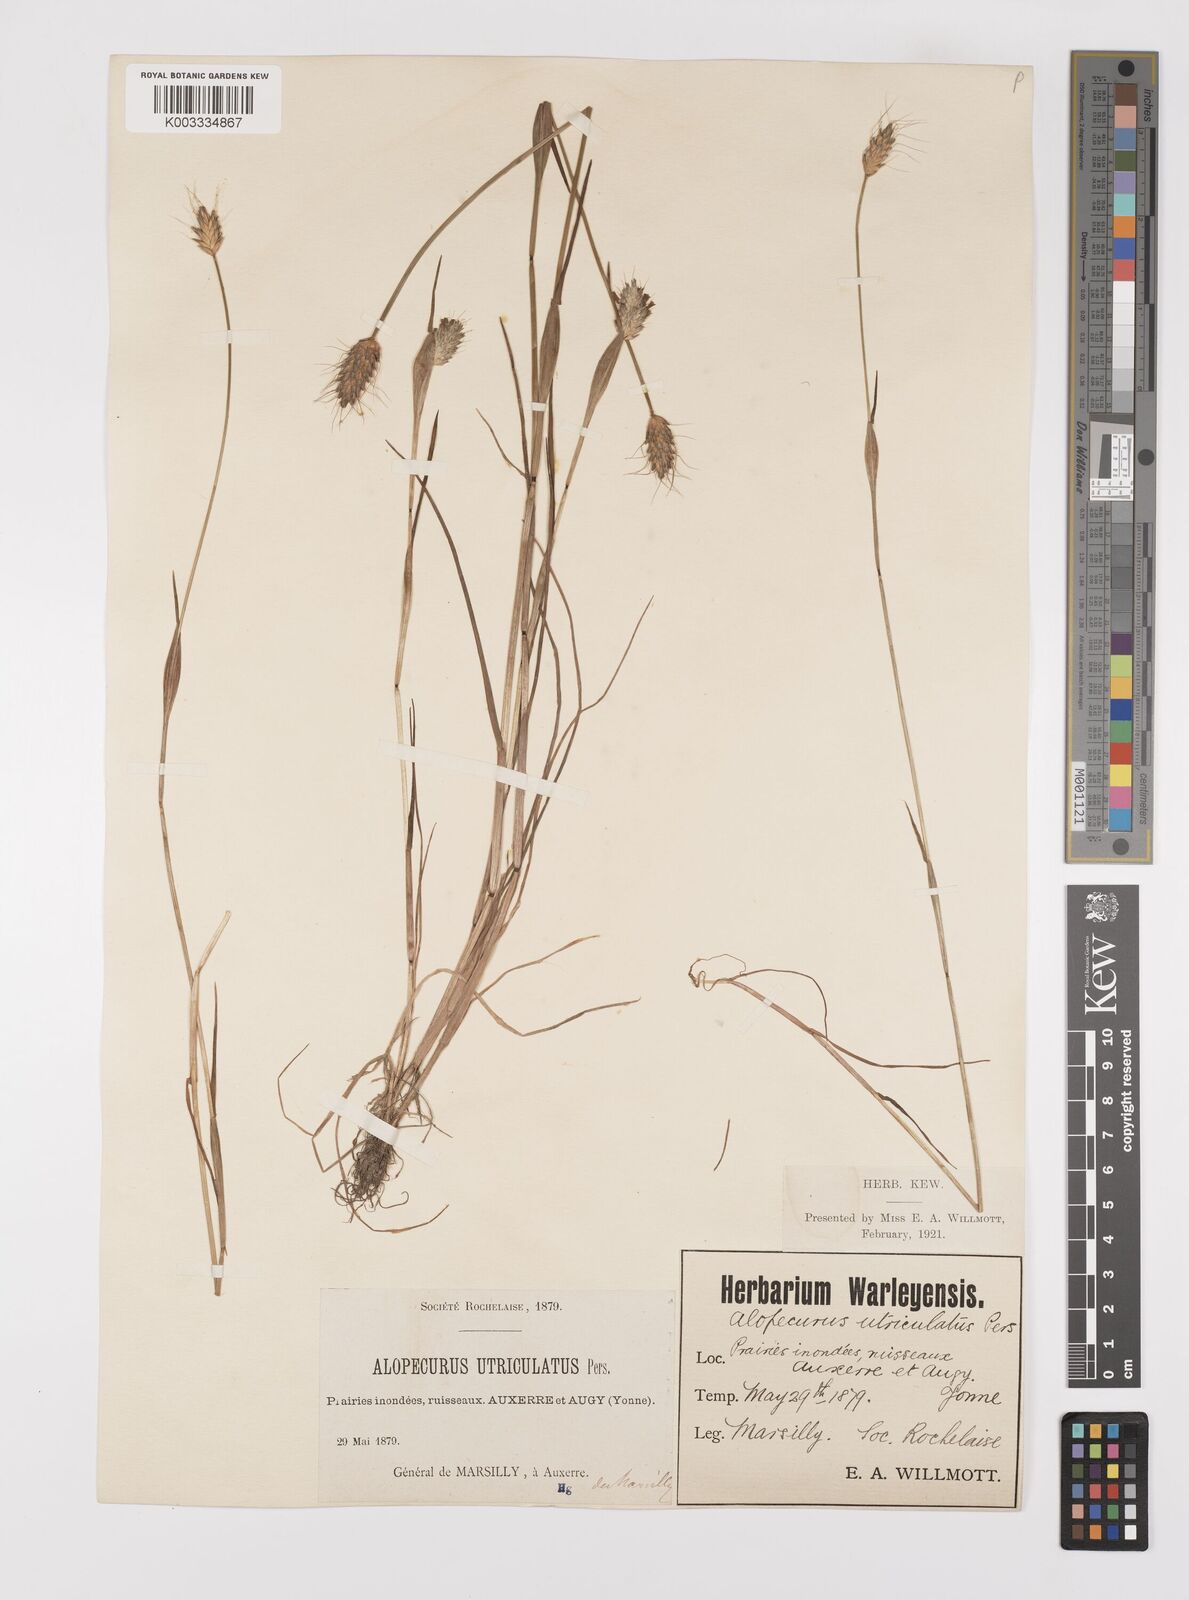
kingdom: Plantae
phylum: Tracheophyta
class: Liliopsida
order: Poales
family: Poaceae
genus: Alopecurus
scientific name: Alopecurus rendlei
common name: Rendle's meadow foxtail
